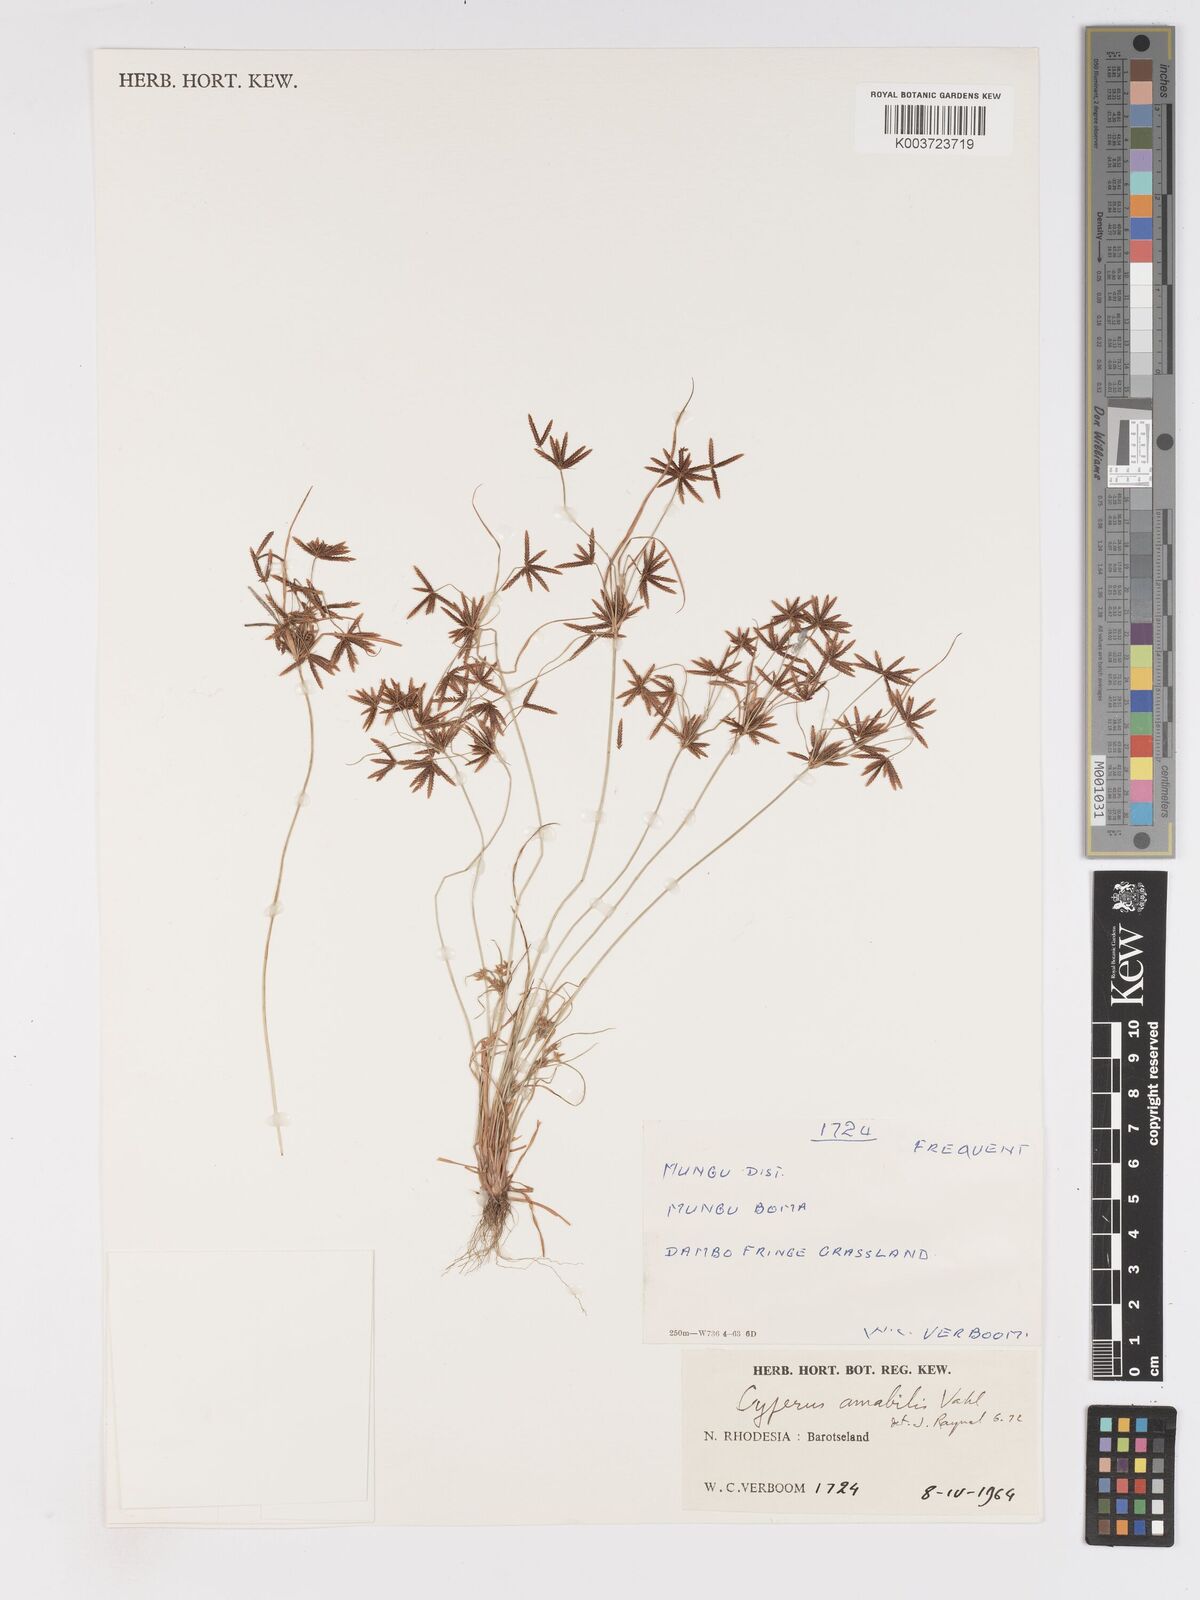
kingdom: Plantae
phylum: Tracheophyta
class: Liliopsida
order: Poales
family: Cyperaceae
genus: Cyperus
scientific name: Cyperus amabilis
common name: Foothill flat sedge
